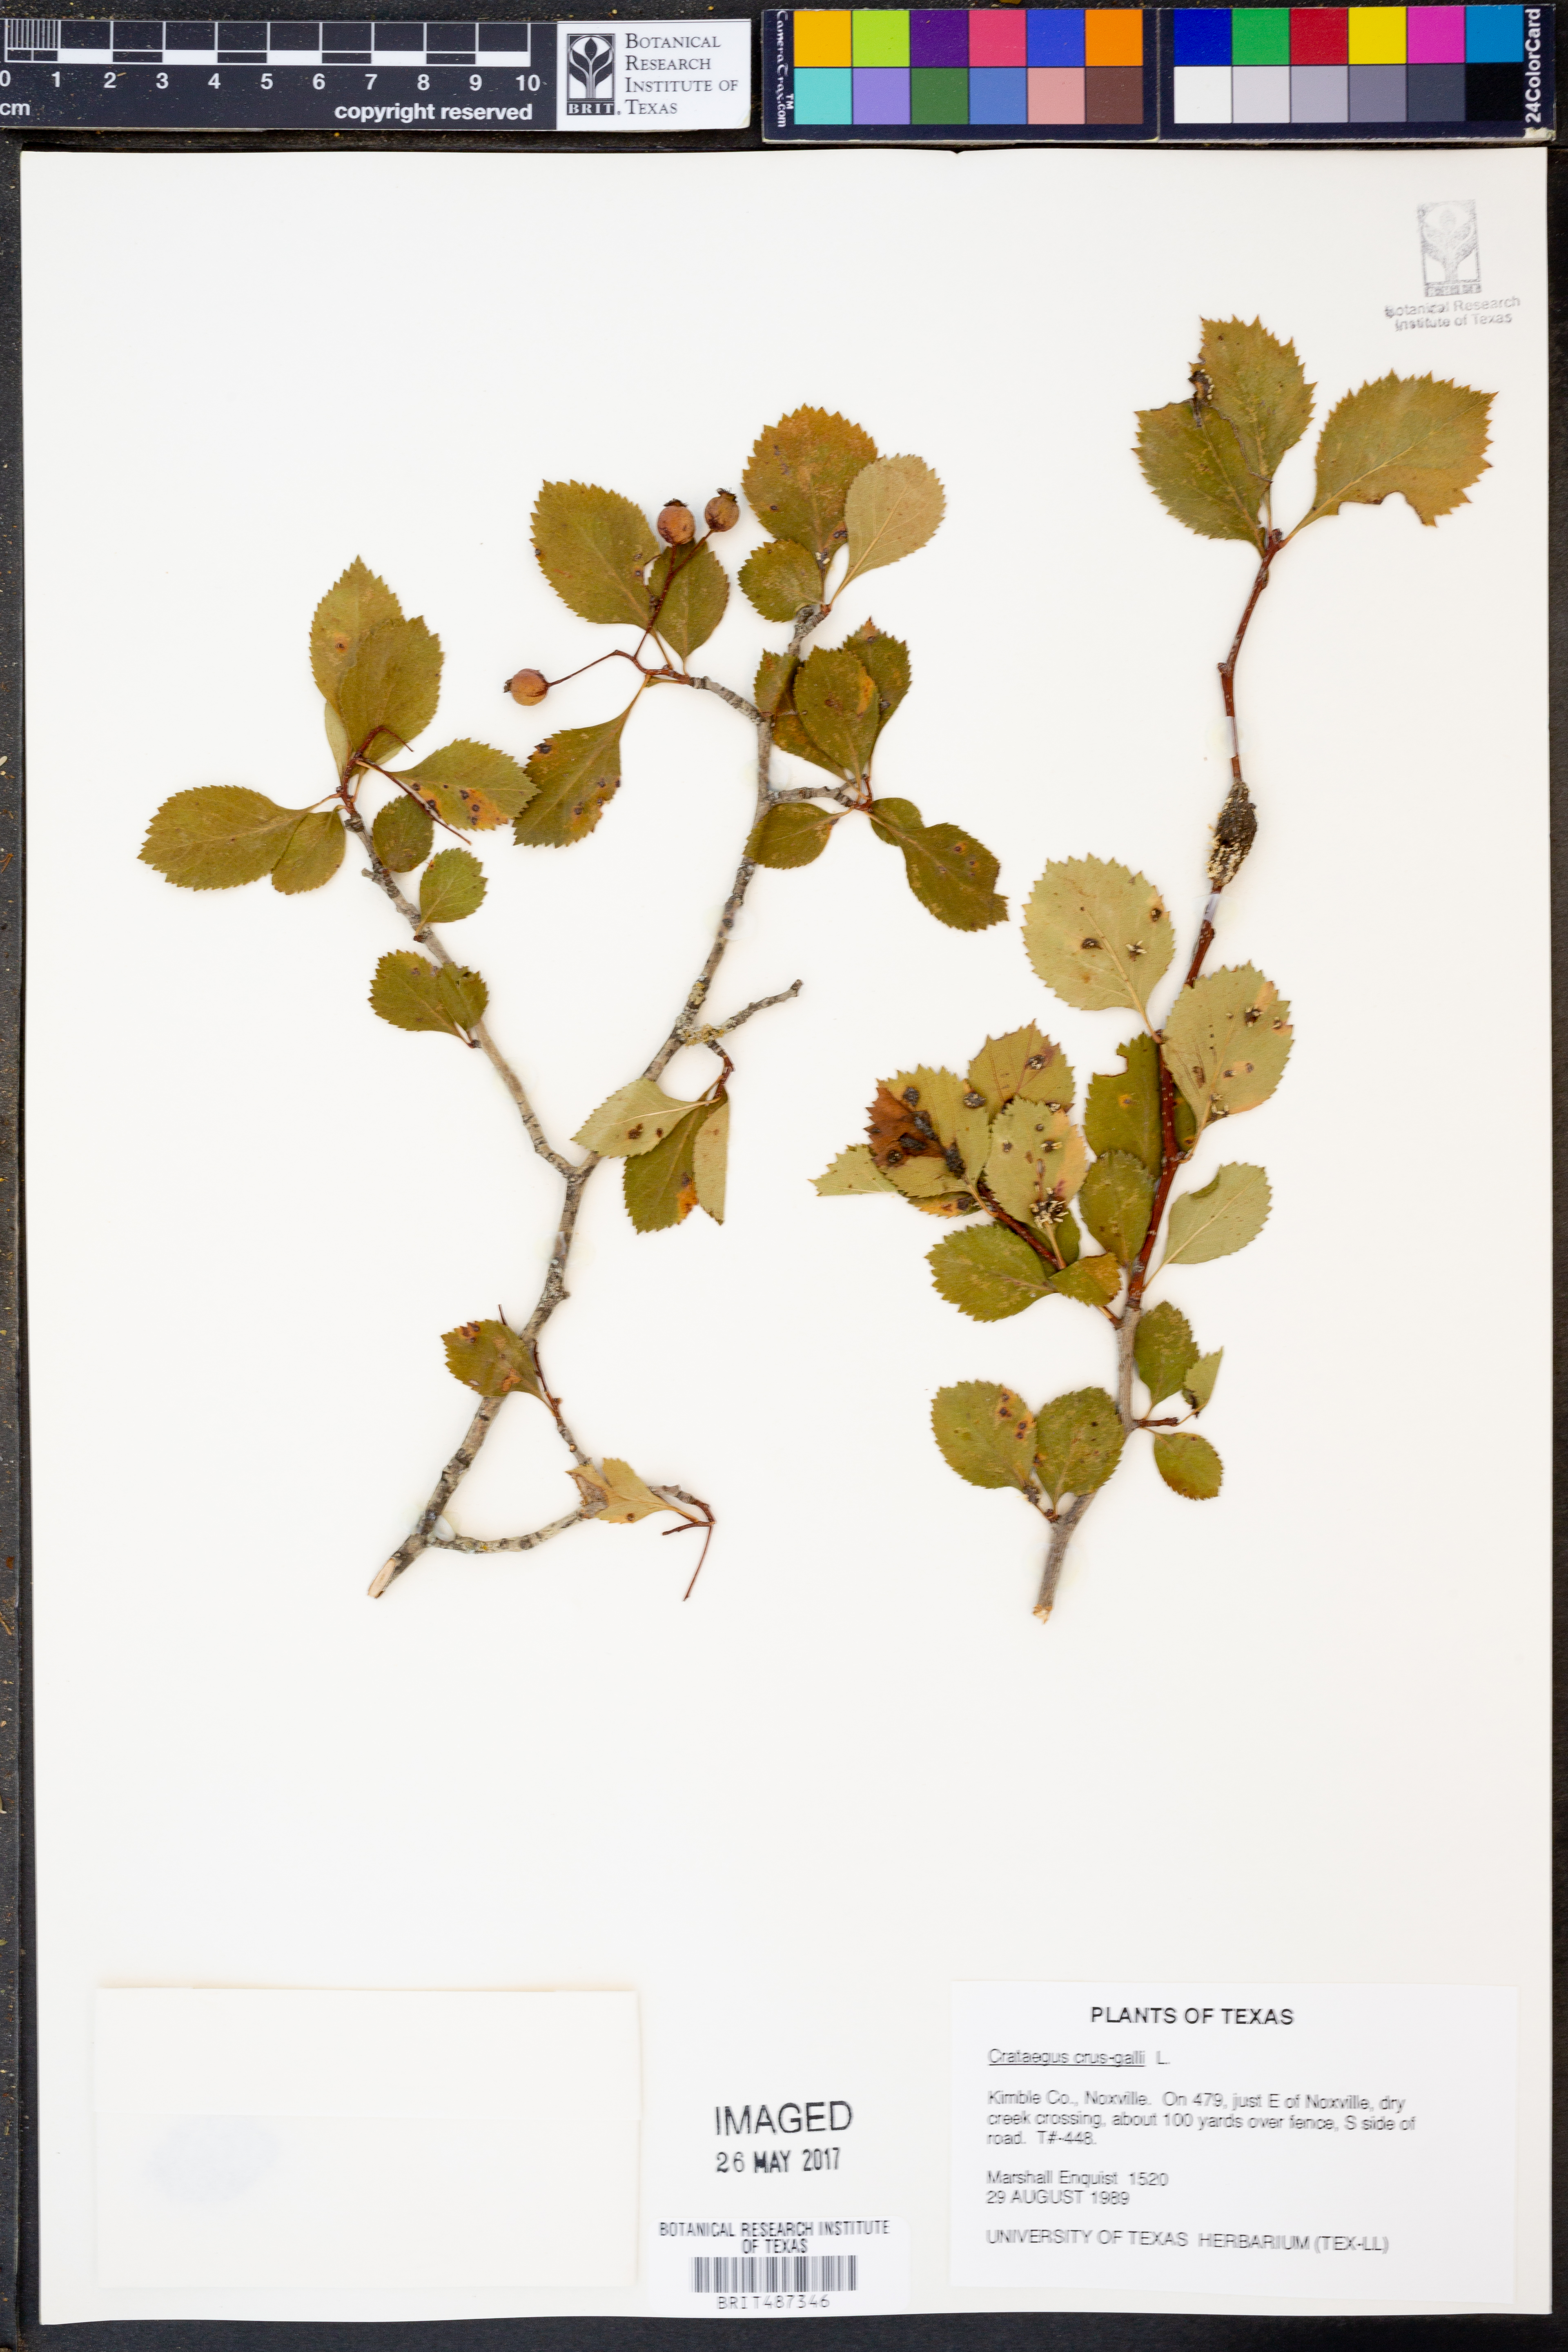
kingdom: Plantae
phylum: Tracheophyta
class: Magnoliopsida
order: Rosales
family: Rosaceae
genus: Crataegus
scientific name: Crataegus crus-galli
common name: Cockspurthorn
